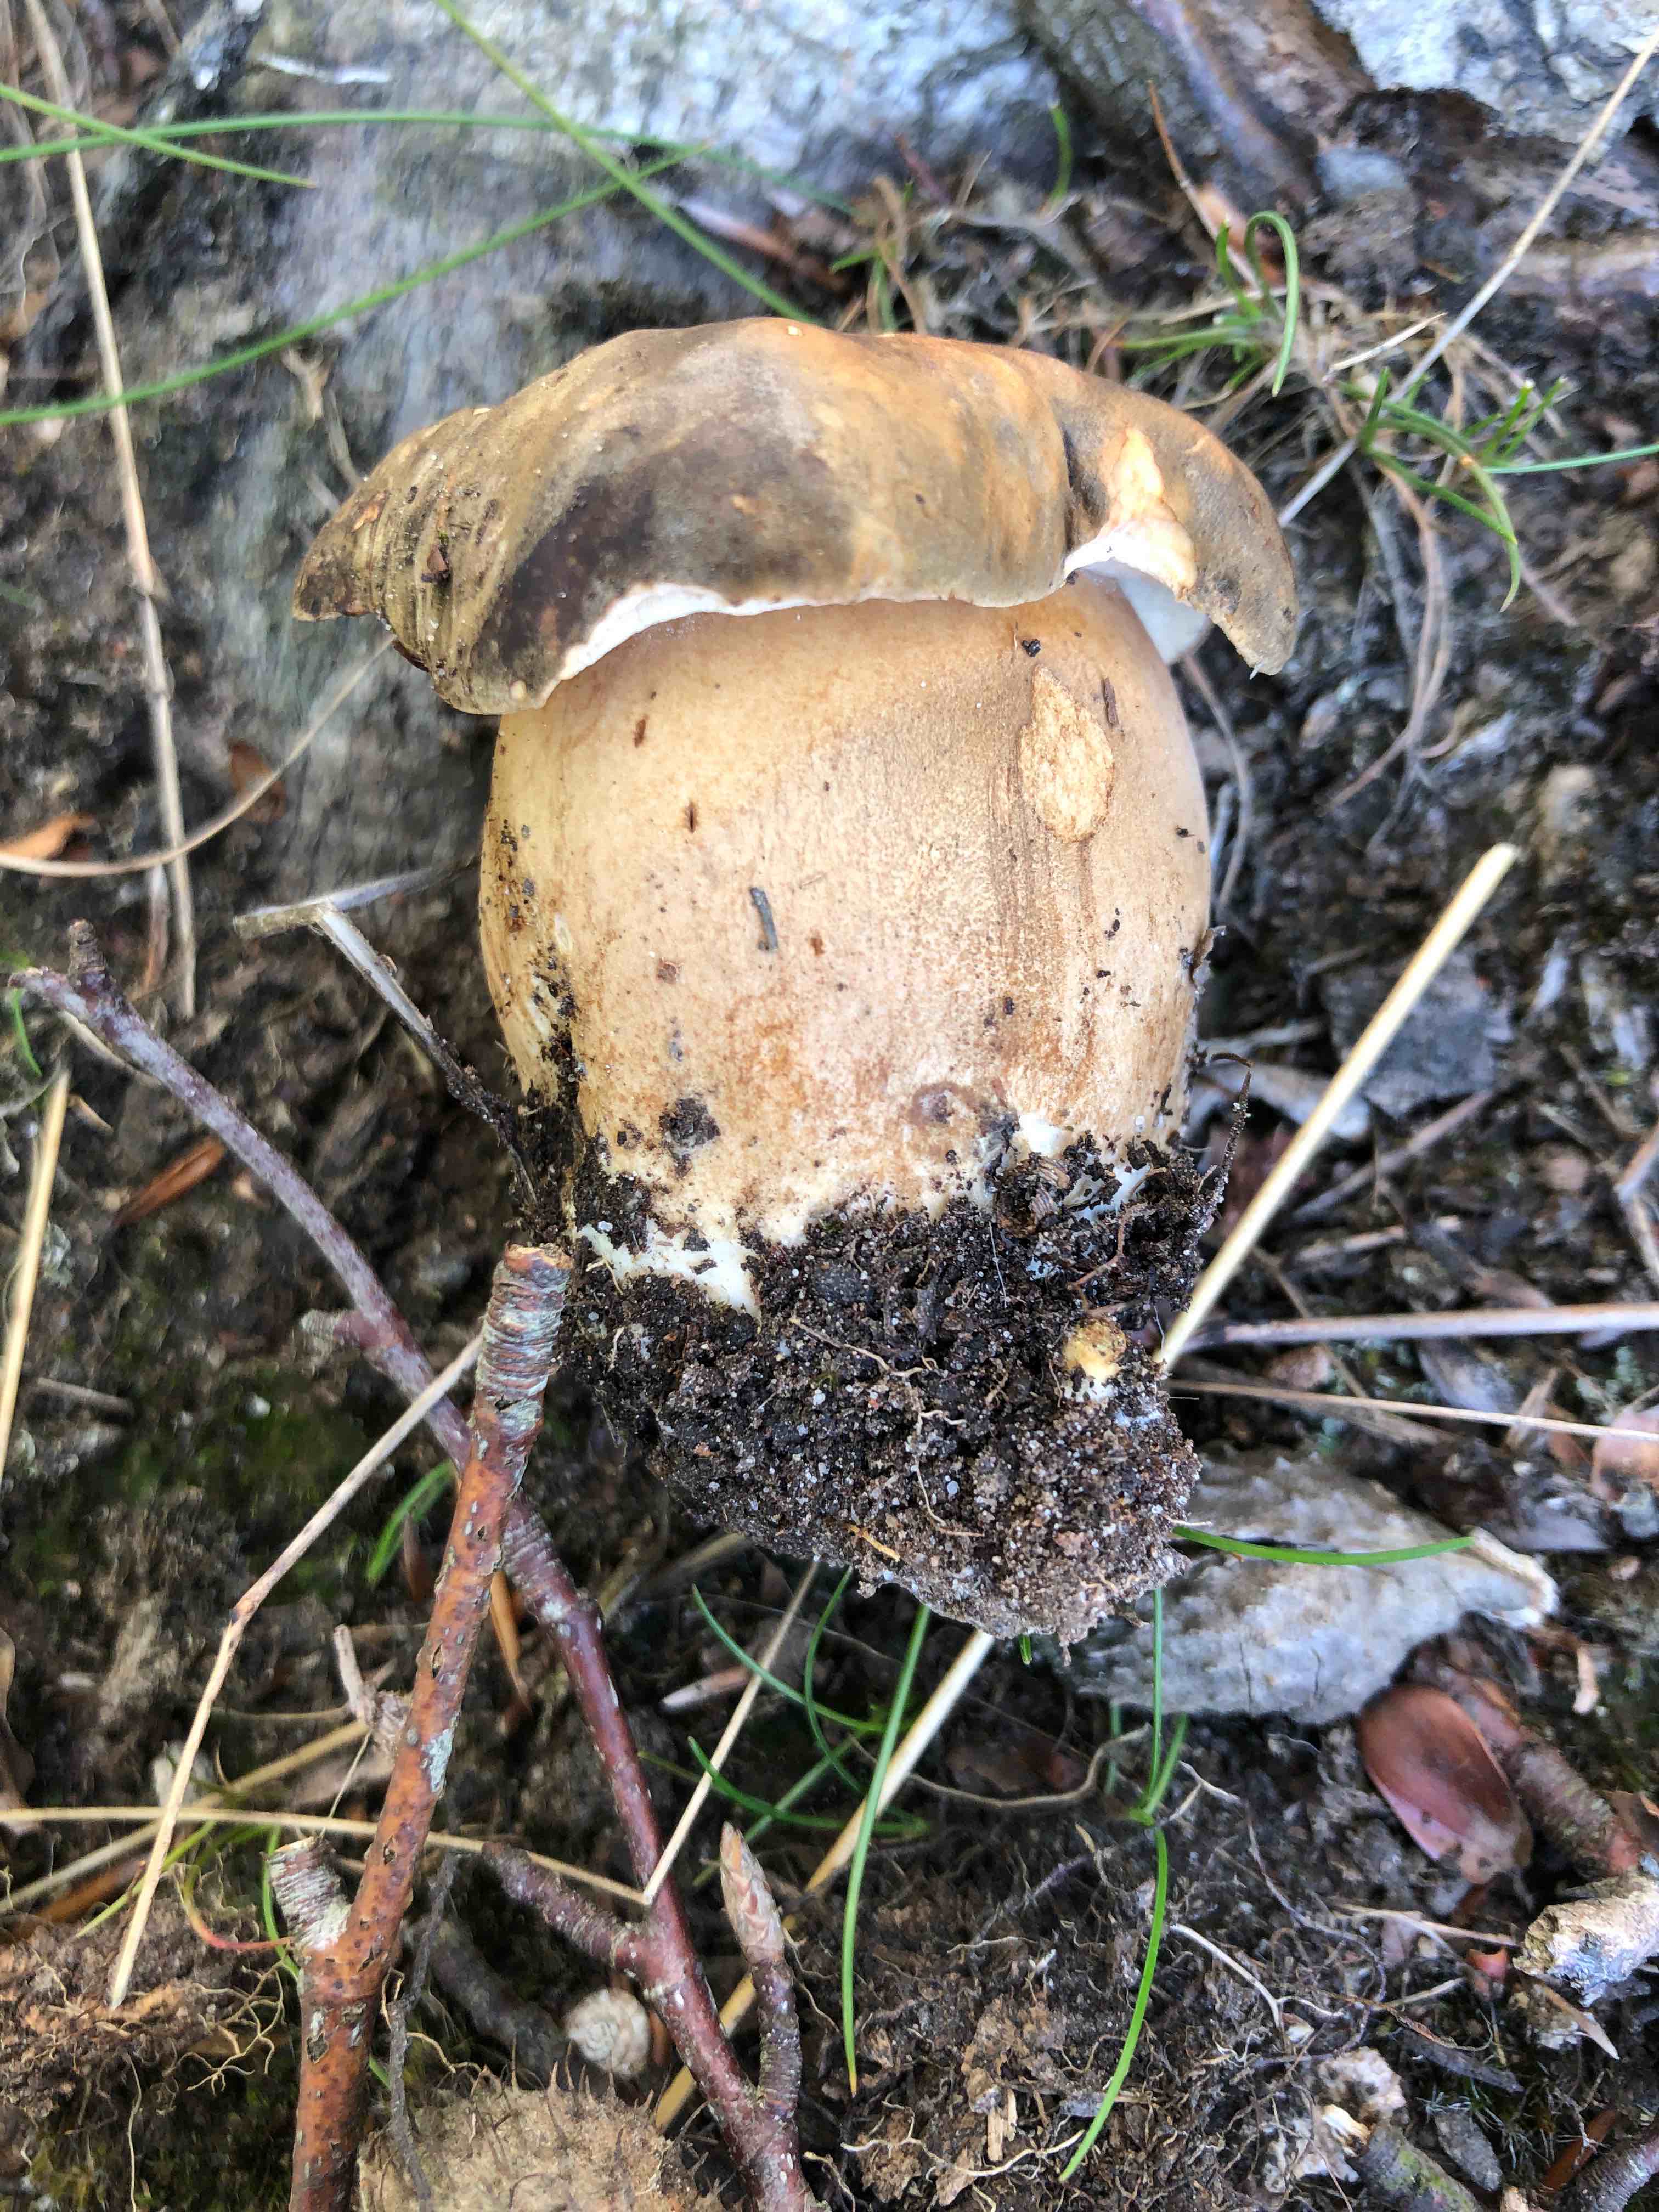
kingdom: Fungi
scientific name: Fungi
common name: bronze-rørhat
